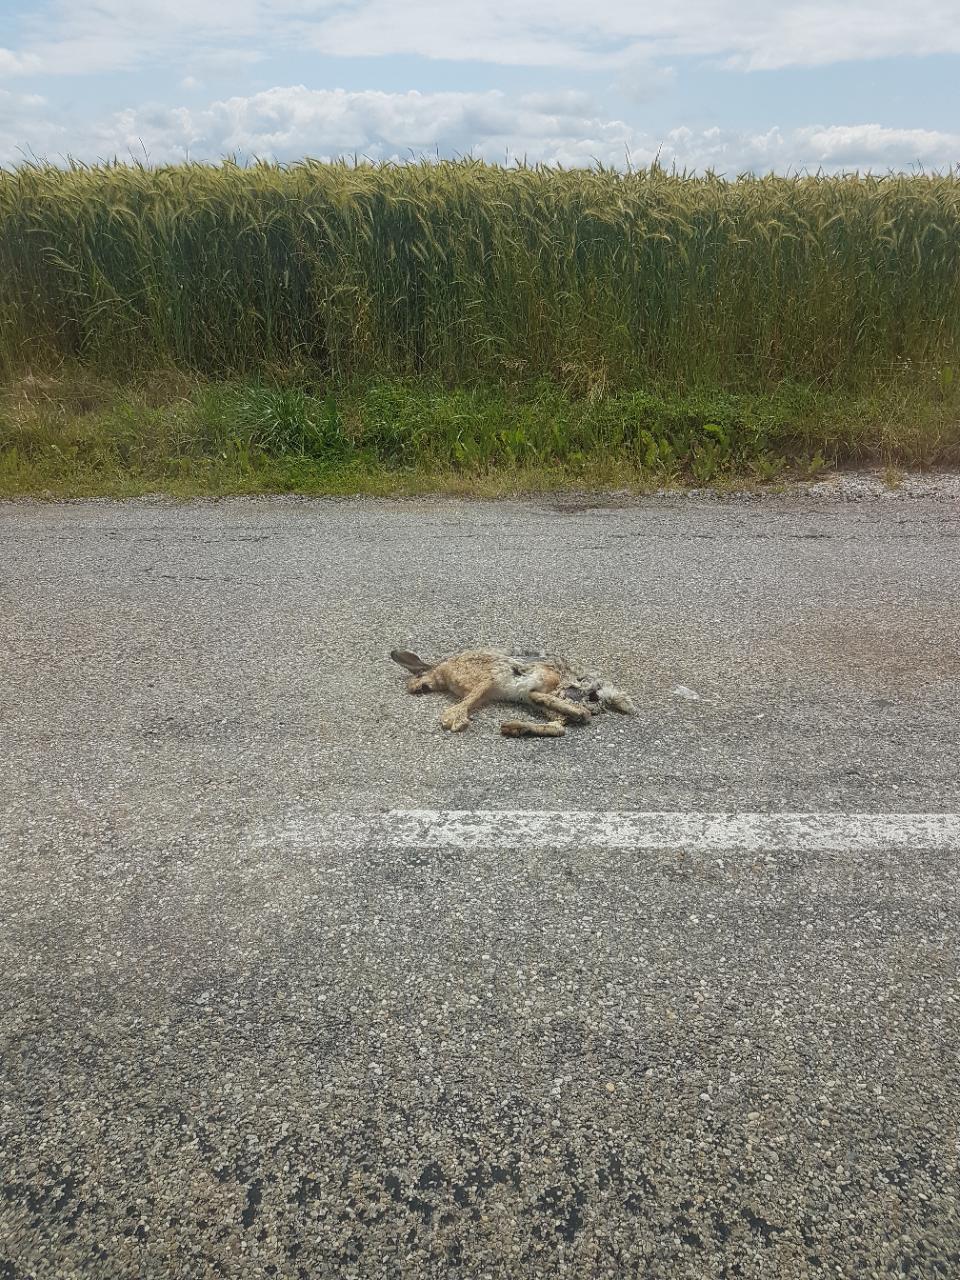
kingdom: Animalia
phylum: Chordata
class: Mammalia
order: Lagomorpha
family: Leporidae
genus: Lepus
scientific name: Lepus europaeus
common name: European hare
